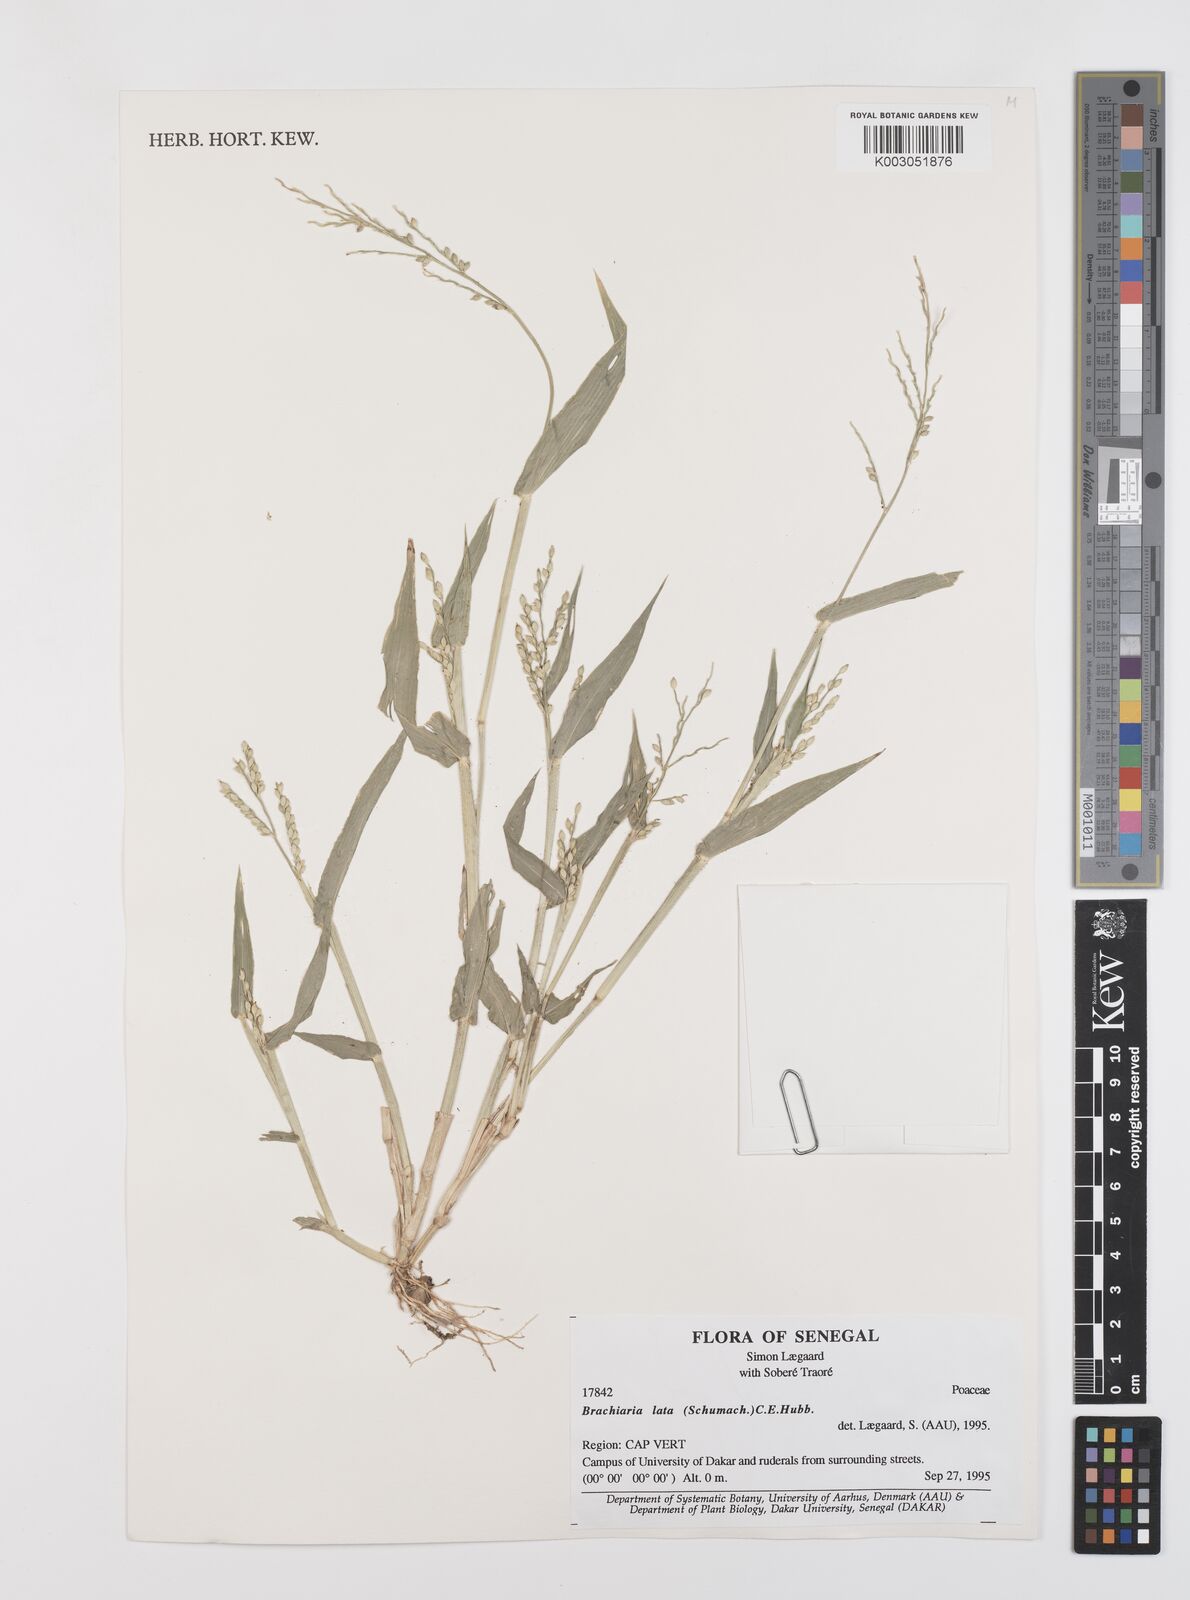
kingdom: Plantae
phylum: Tracheophyta
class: Liliopsida
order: Poales
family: Poaceae
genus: Urochloa
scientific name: Urochloa lata
